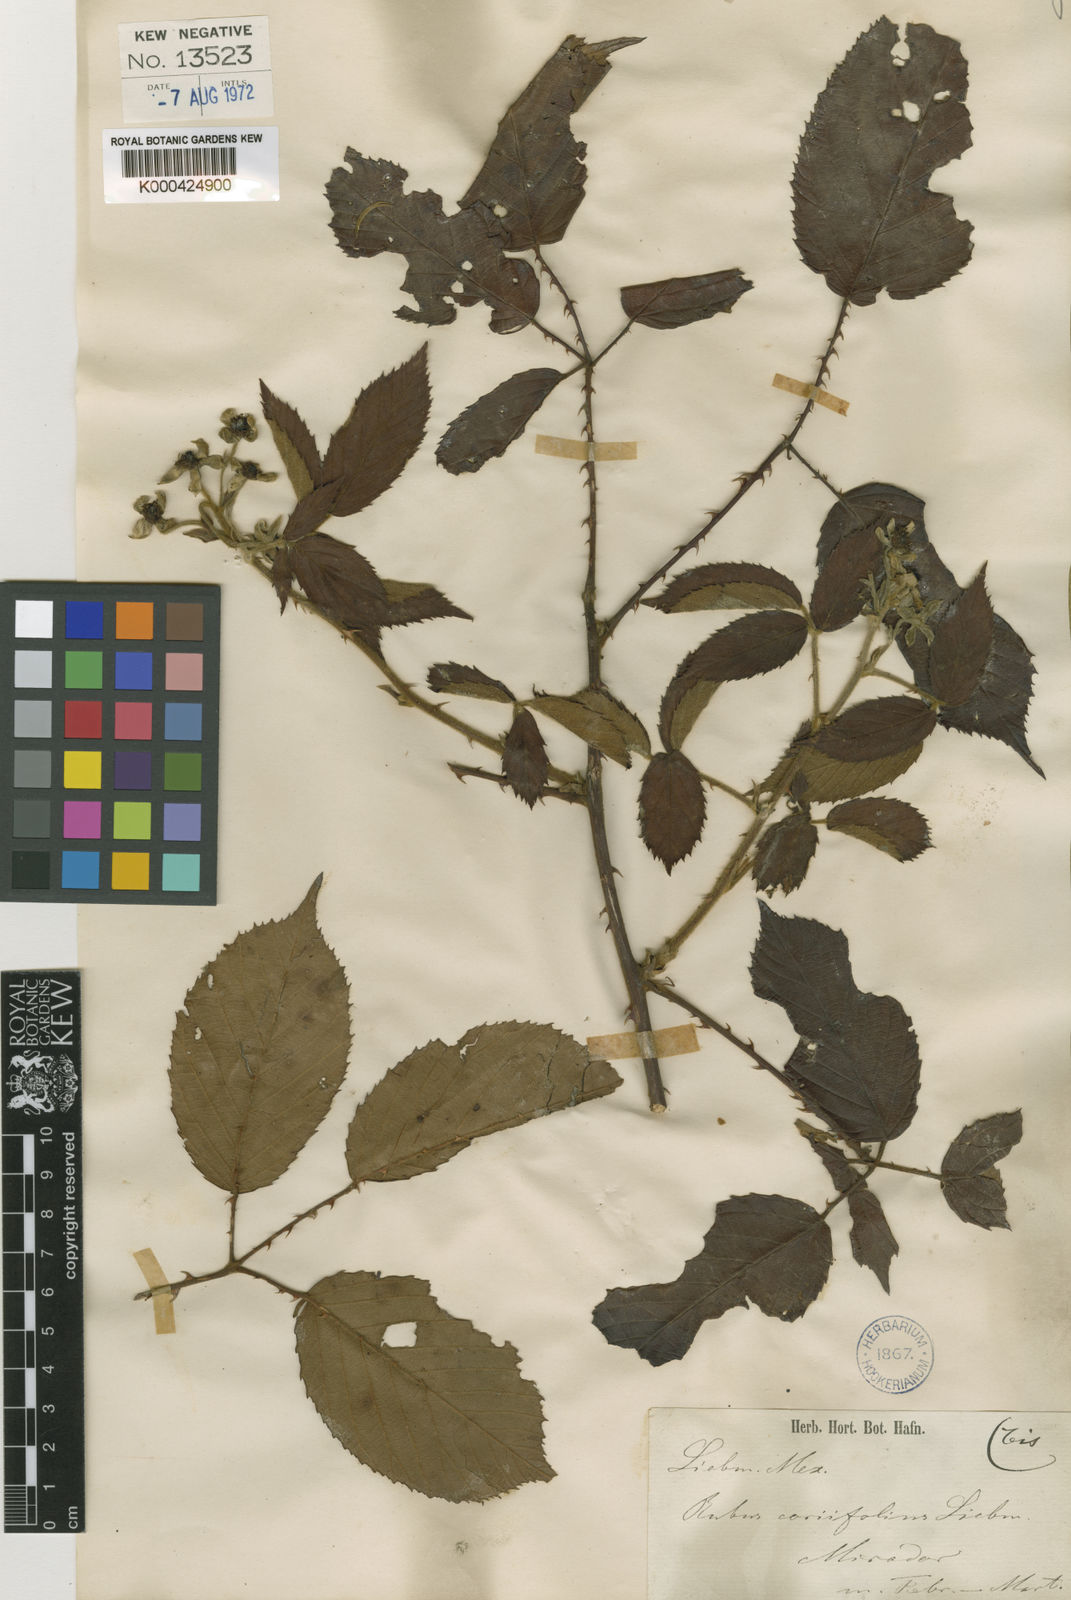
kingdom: Plantae
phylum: Tracheophyta
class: Magnoliopsida
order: Rosales
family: Rosaceae
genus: Rubus
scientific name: Rubus coriifolius
